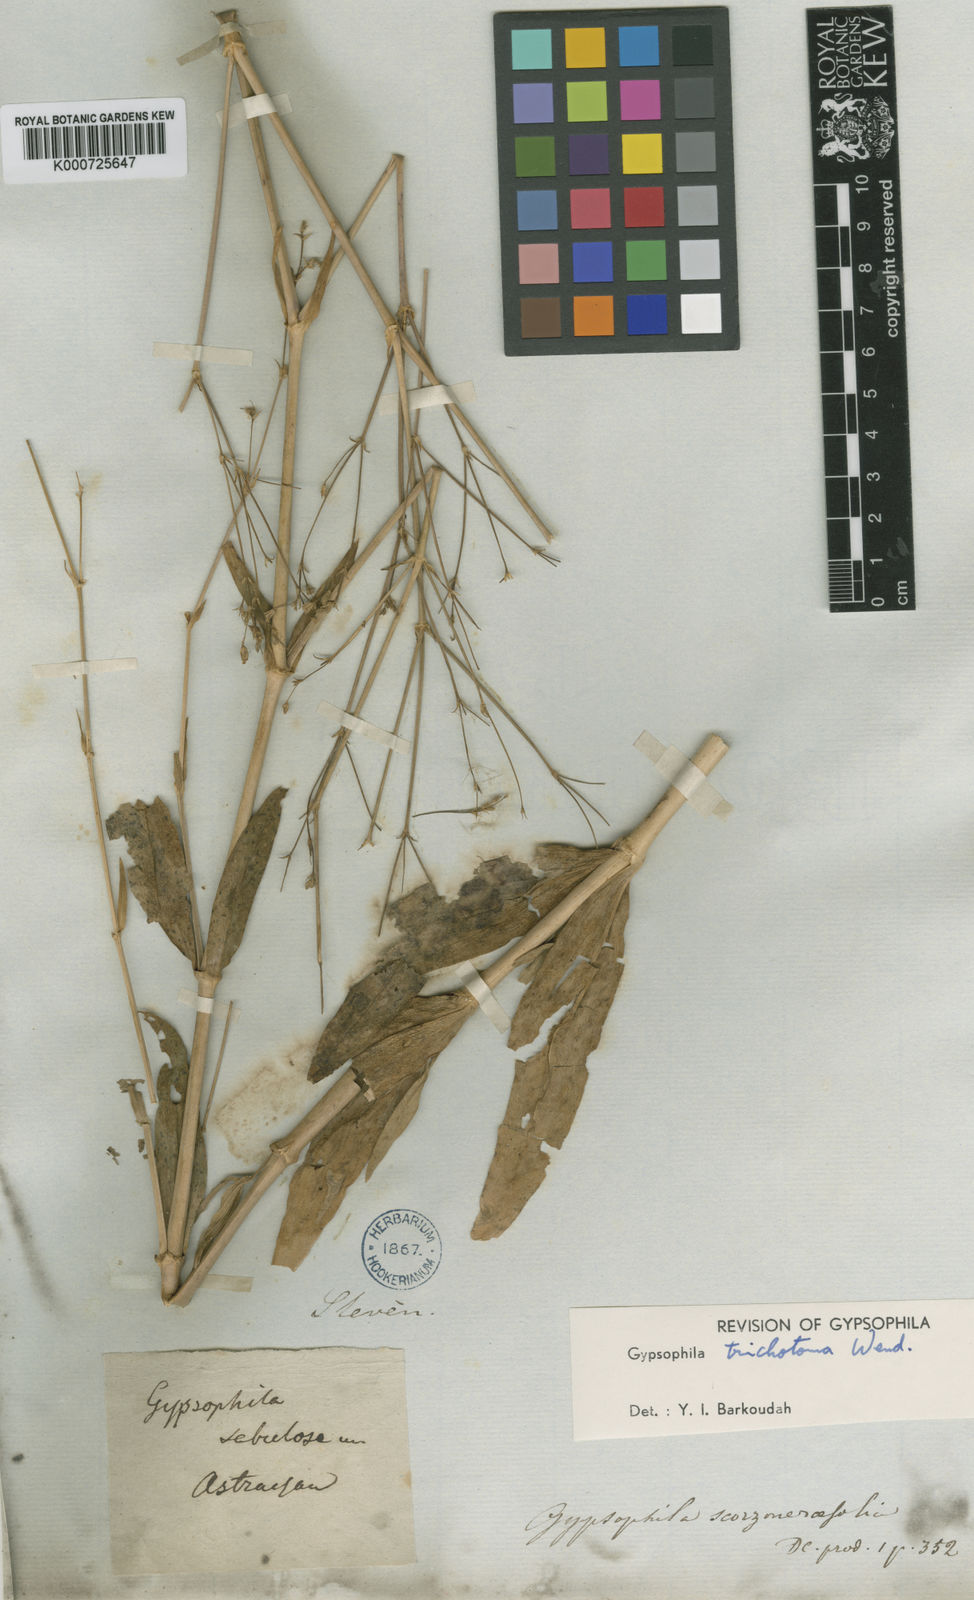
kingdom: Plantae
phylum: Tracheophyta
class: Magnoliopsida
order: Caryophyllales
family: Caryophyllaceae
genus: Gypsophila
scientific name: Gypsophila perfoliata
